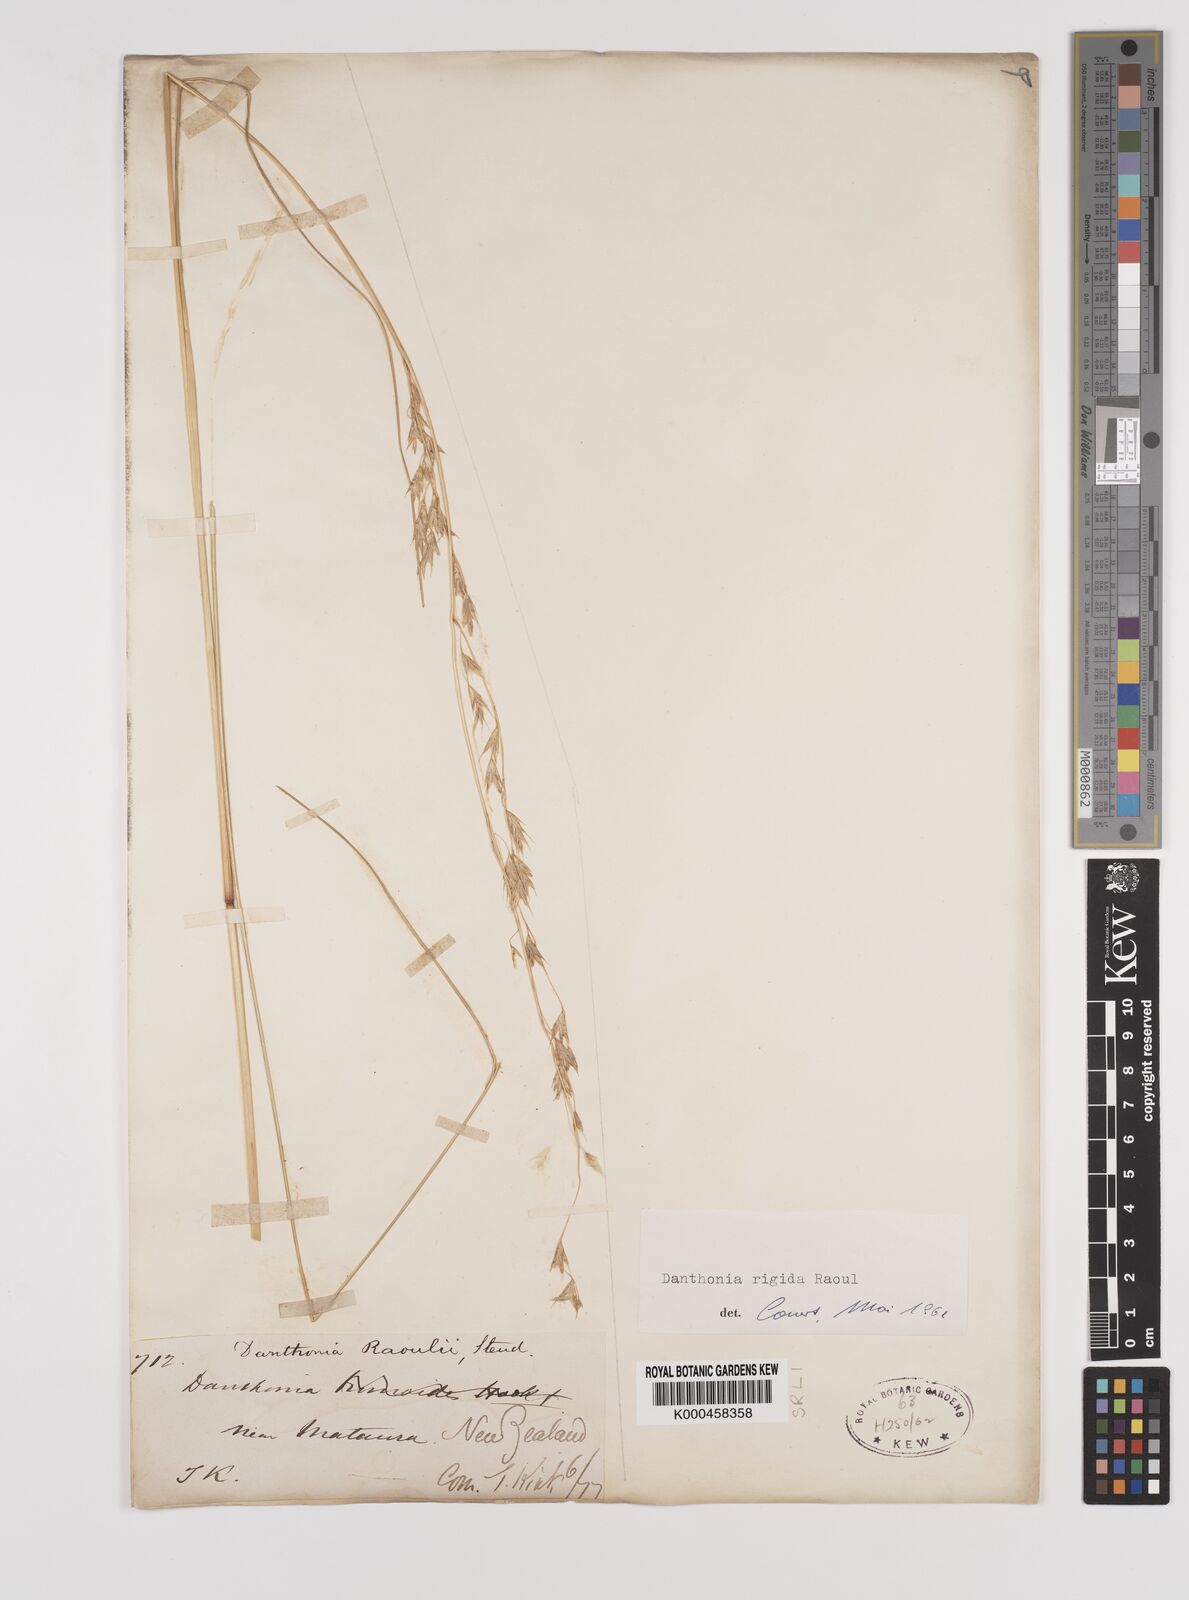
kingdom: Plantae
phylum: Tracheophyta
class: Liliopsida
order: Poales
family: Poaceae
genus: Chionochloa
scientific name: Chionochloa rigida
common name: Narrow leaved snow tussock
